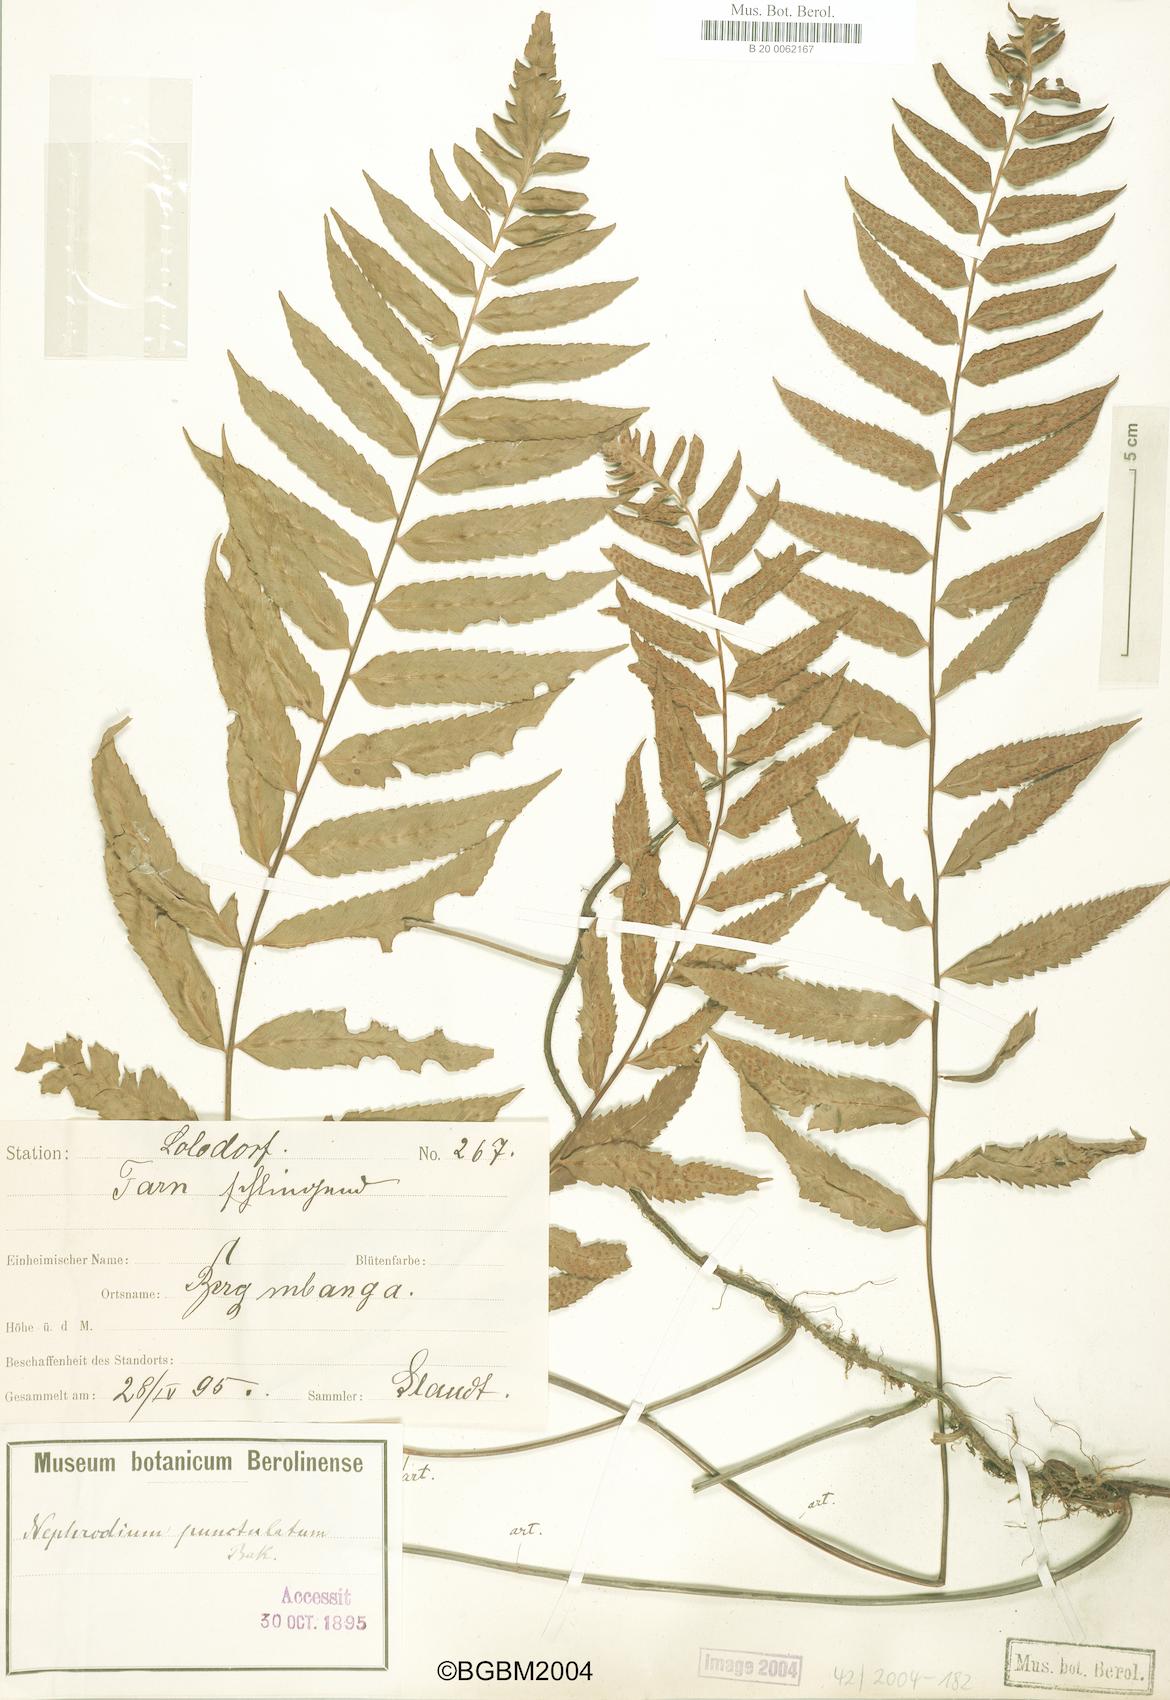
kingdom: Plantae
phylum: Tracheophyta
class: Polypodiopsida
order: Polypodiales
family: Tectariaceae
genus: Arthropteris
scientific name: Arthropteris orientalis
